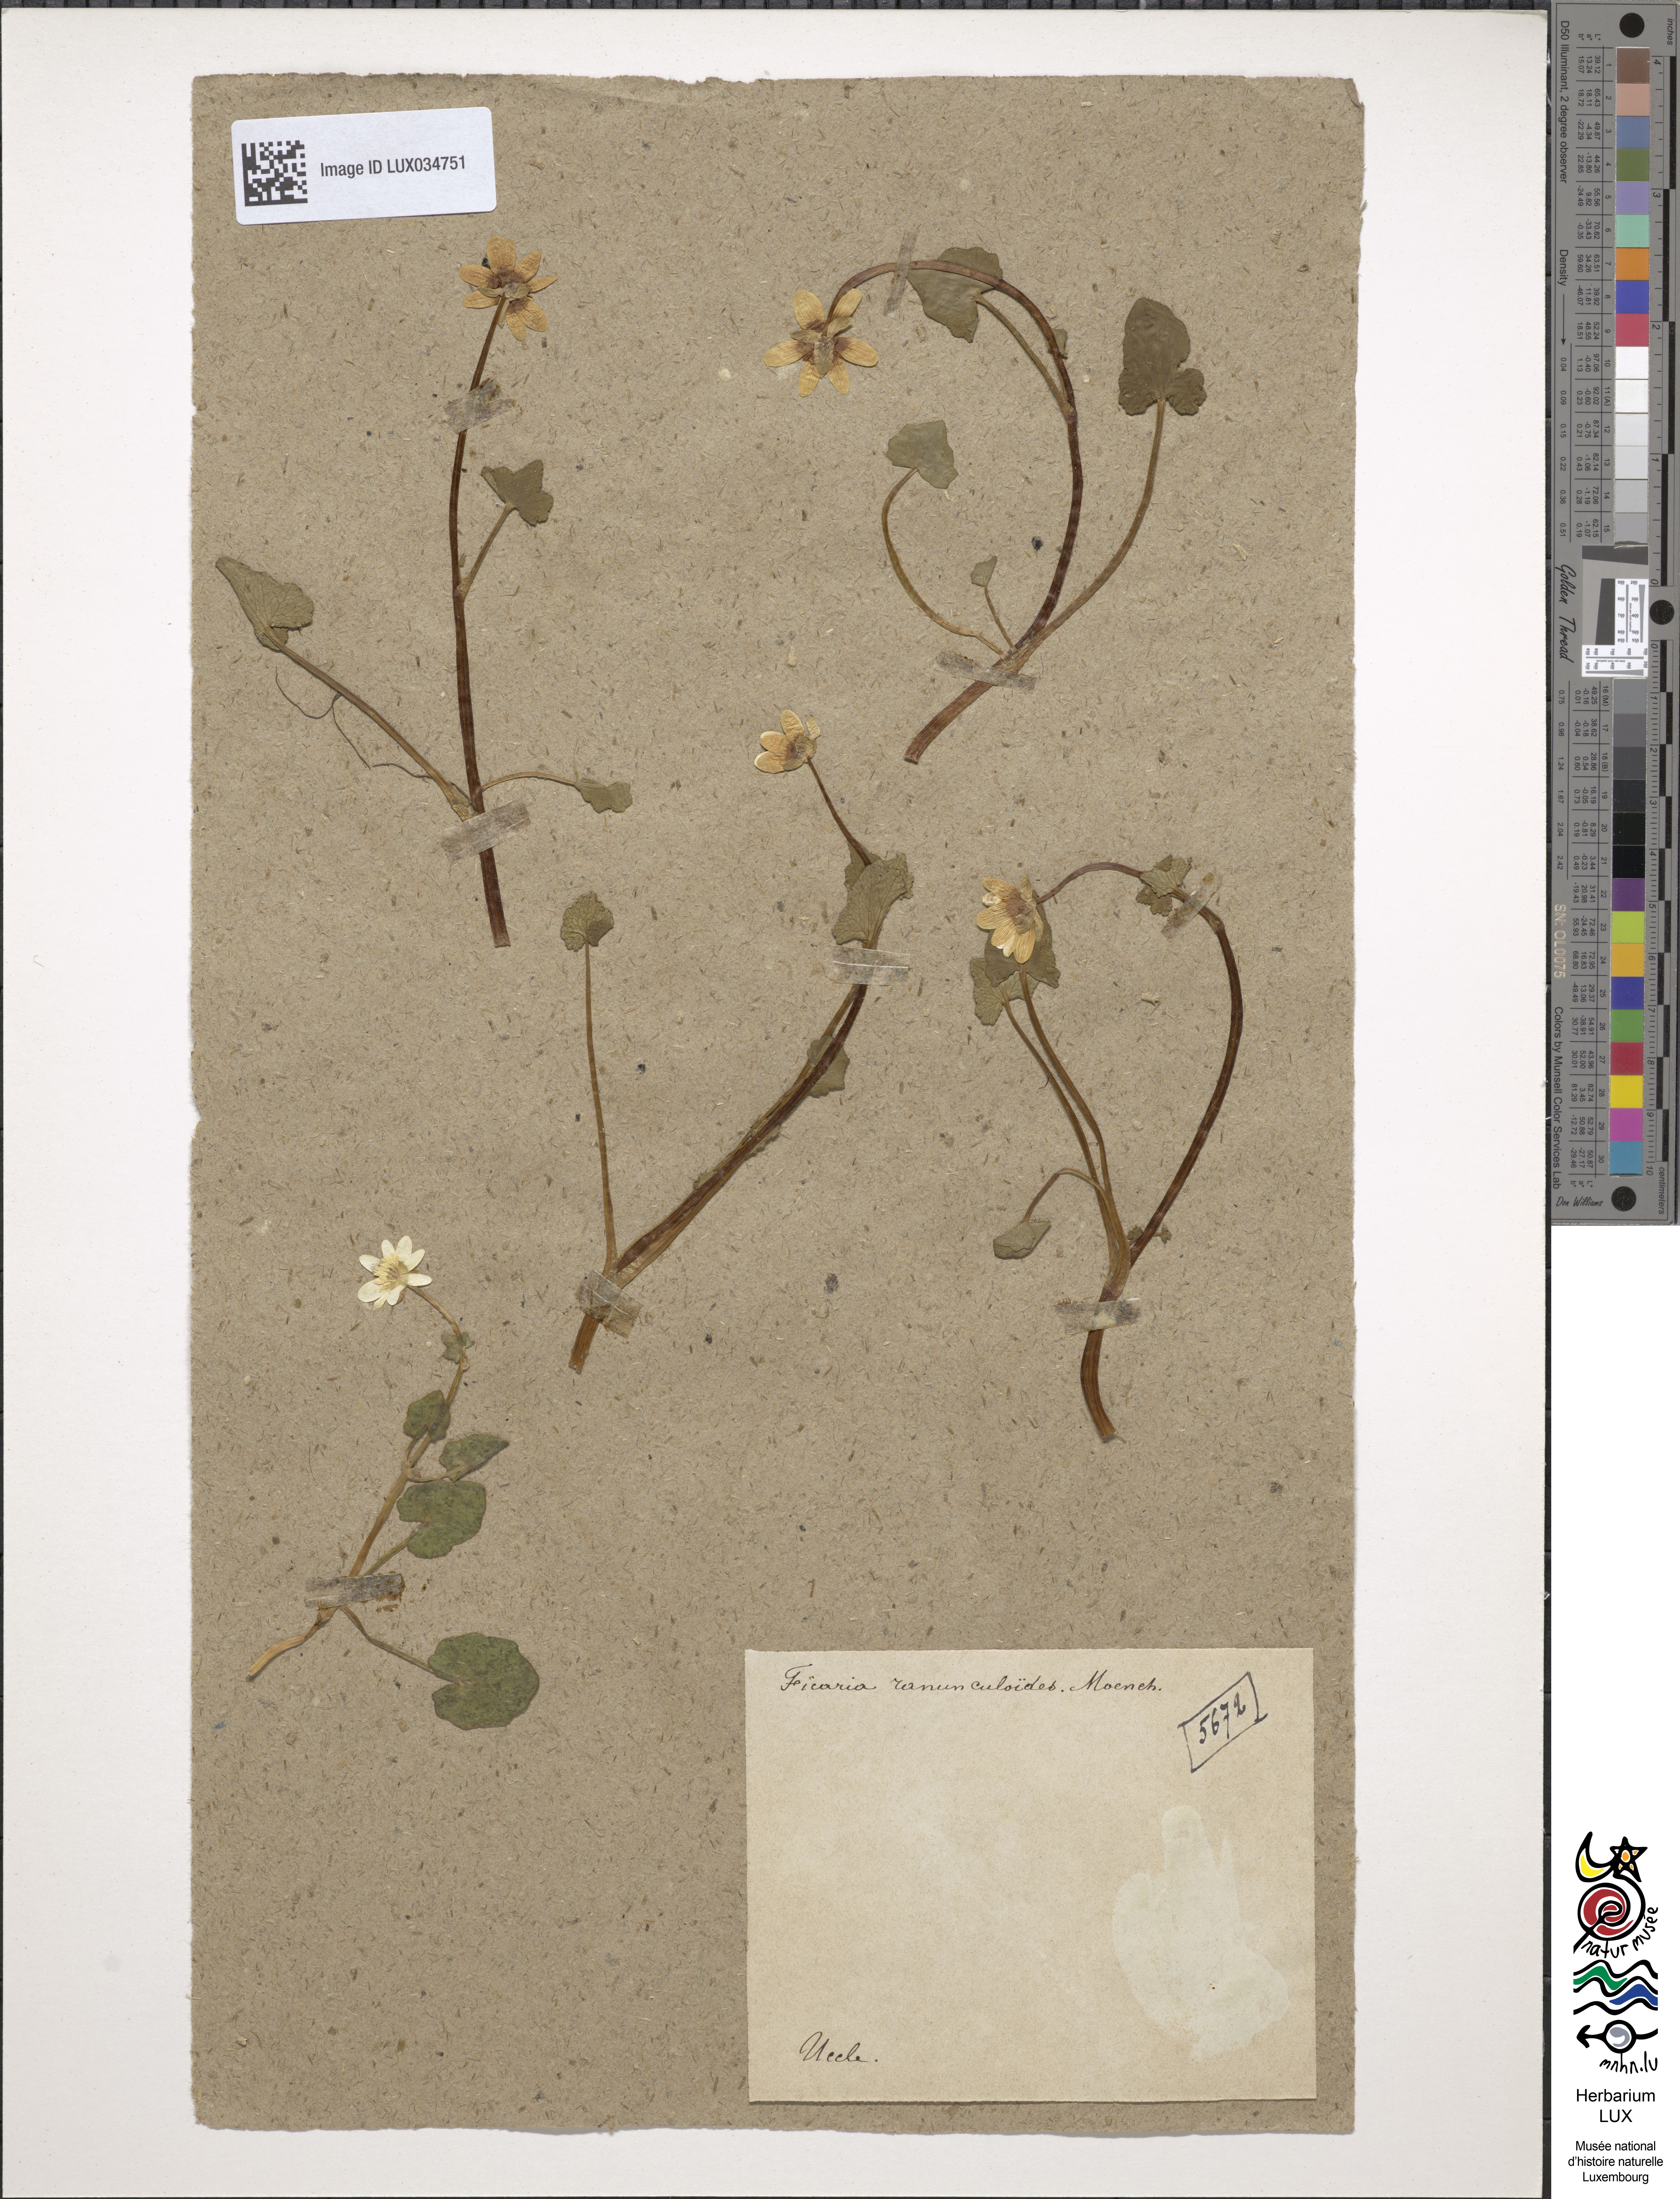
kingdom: Plantae
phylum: Tracheophyta
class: Magnoliopsida
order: Ranunculales
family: Ranunculaceae
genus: Ficaria
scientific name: Ficaria verna
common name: Lesser celandine
